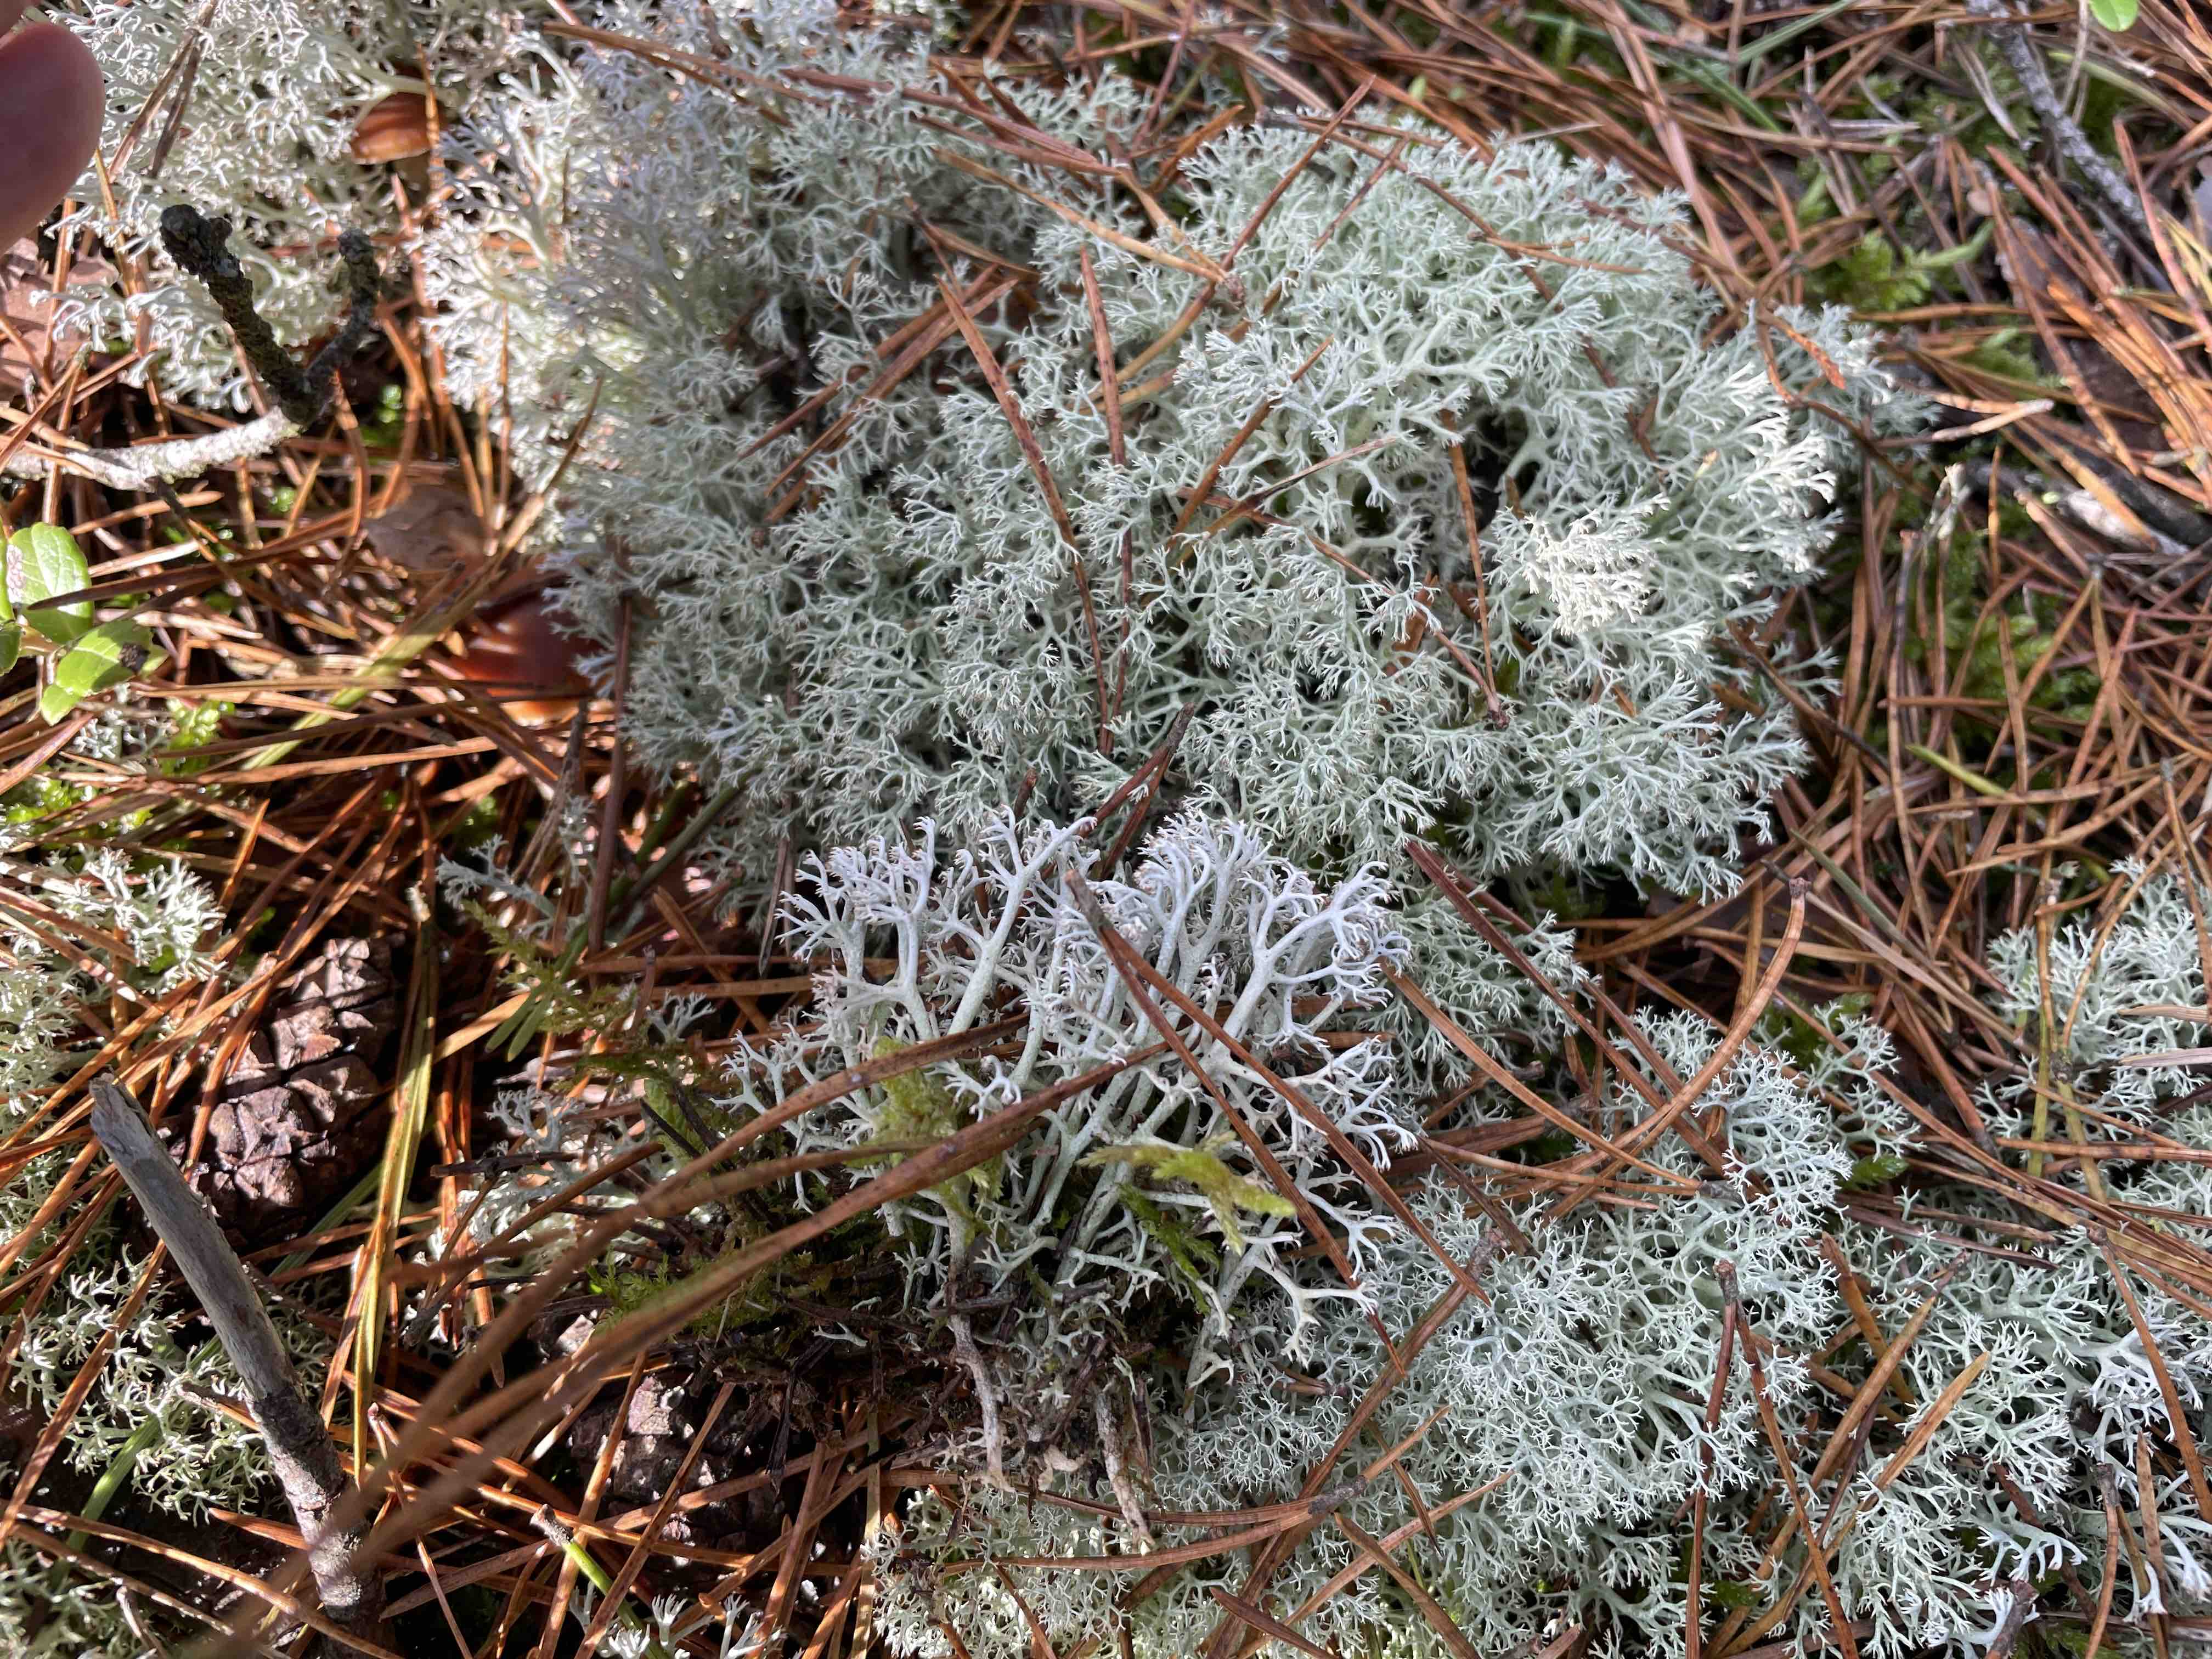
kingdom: Fungi
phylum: Ascomycota
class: Lecanoromycetes
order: Lecanorales
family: Cladoniaceae
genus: Cladonia
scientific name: Cladonia rangiferina
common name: askegrå rensdyrlav
